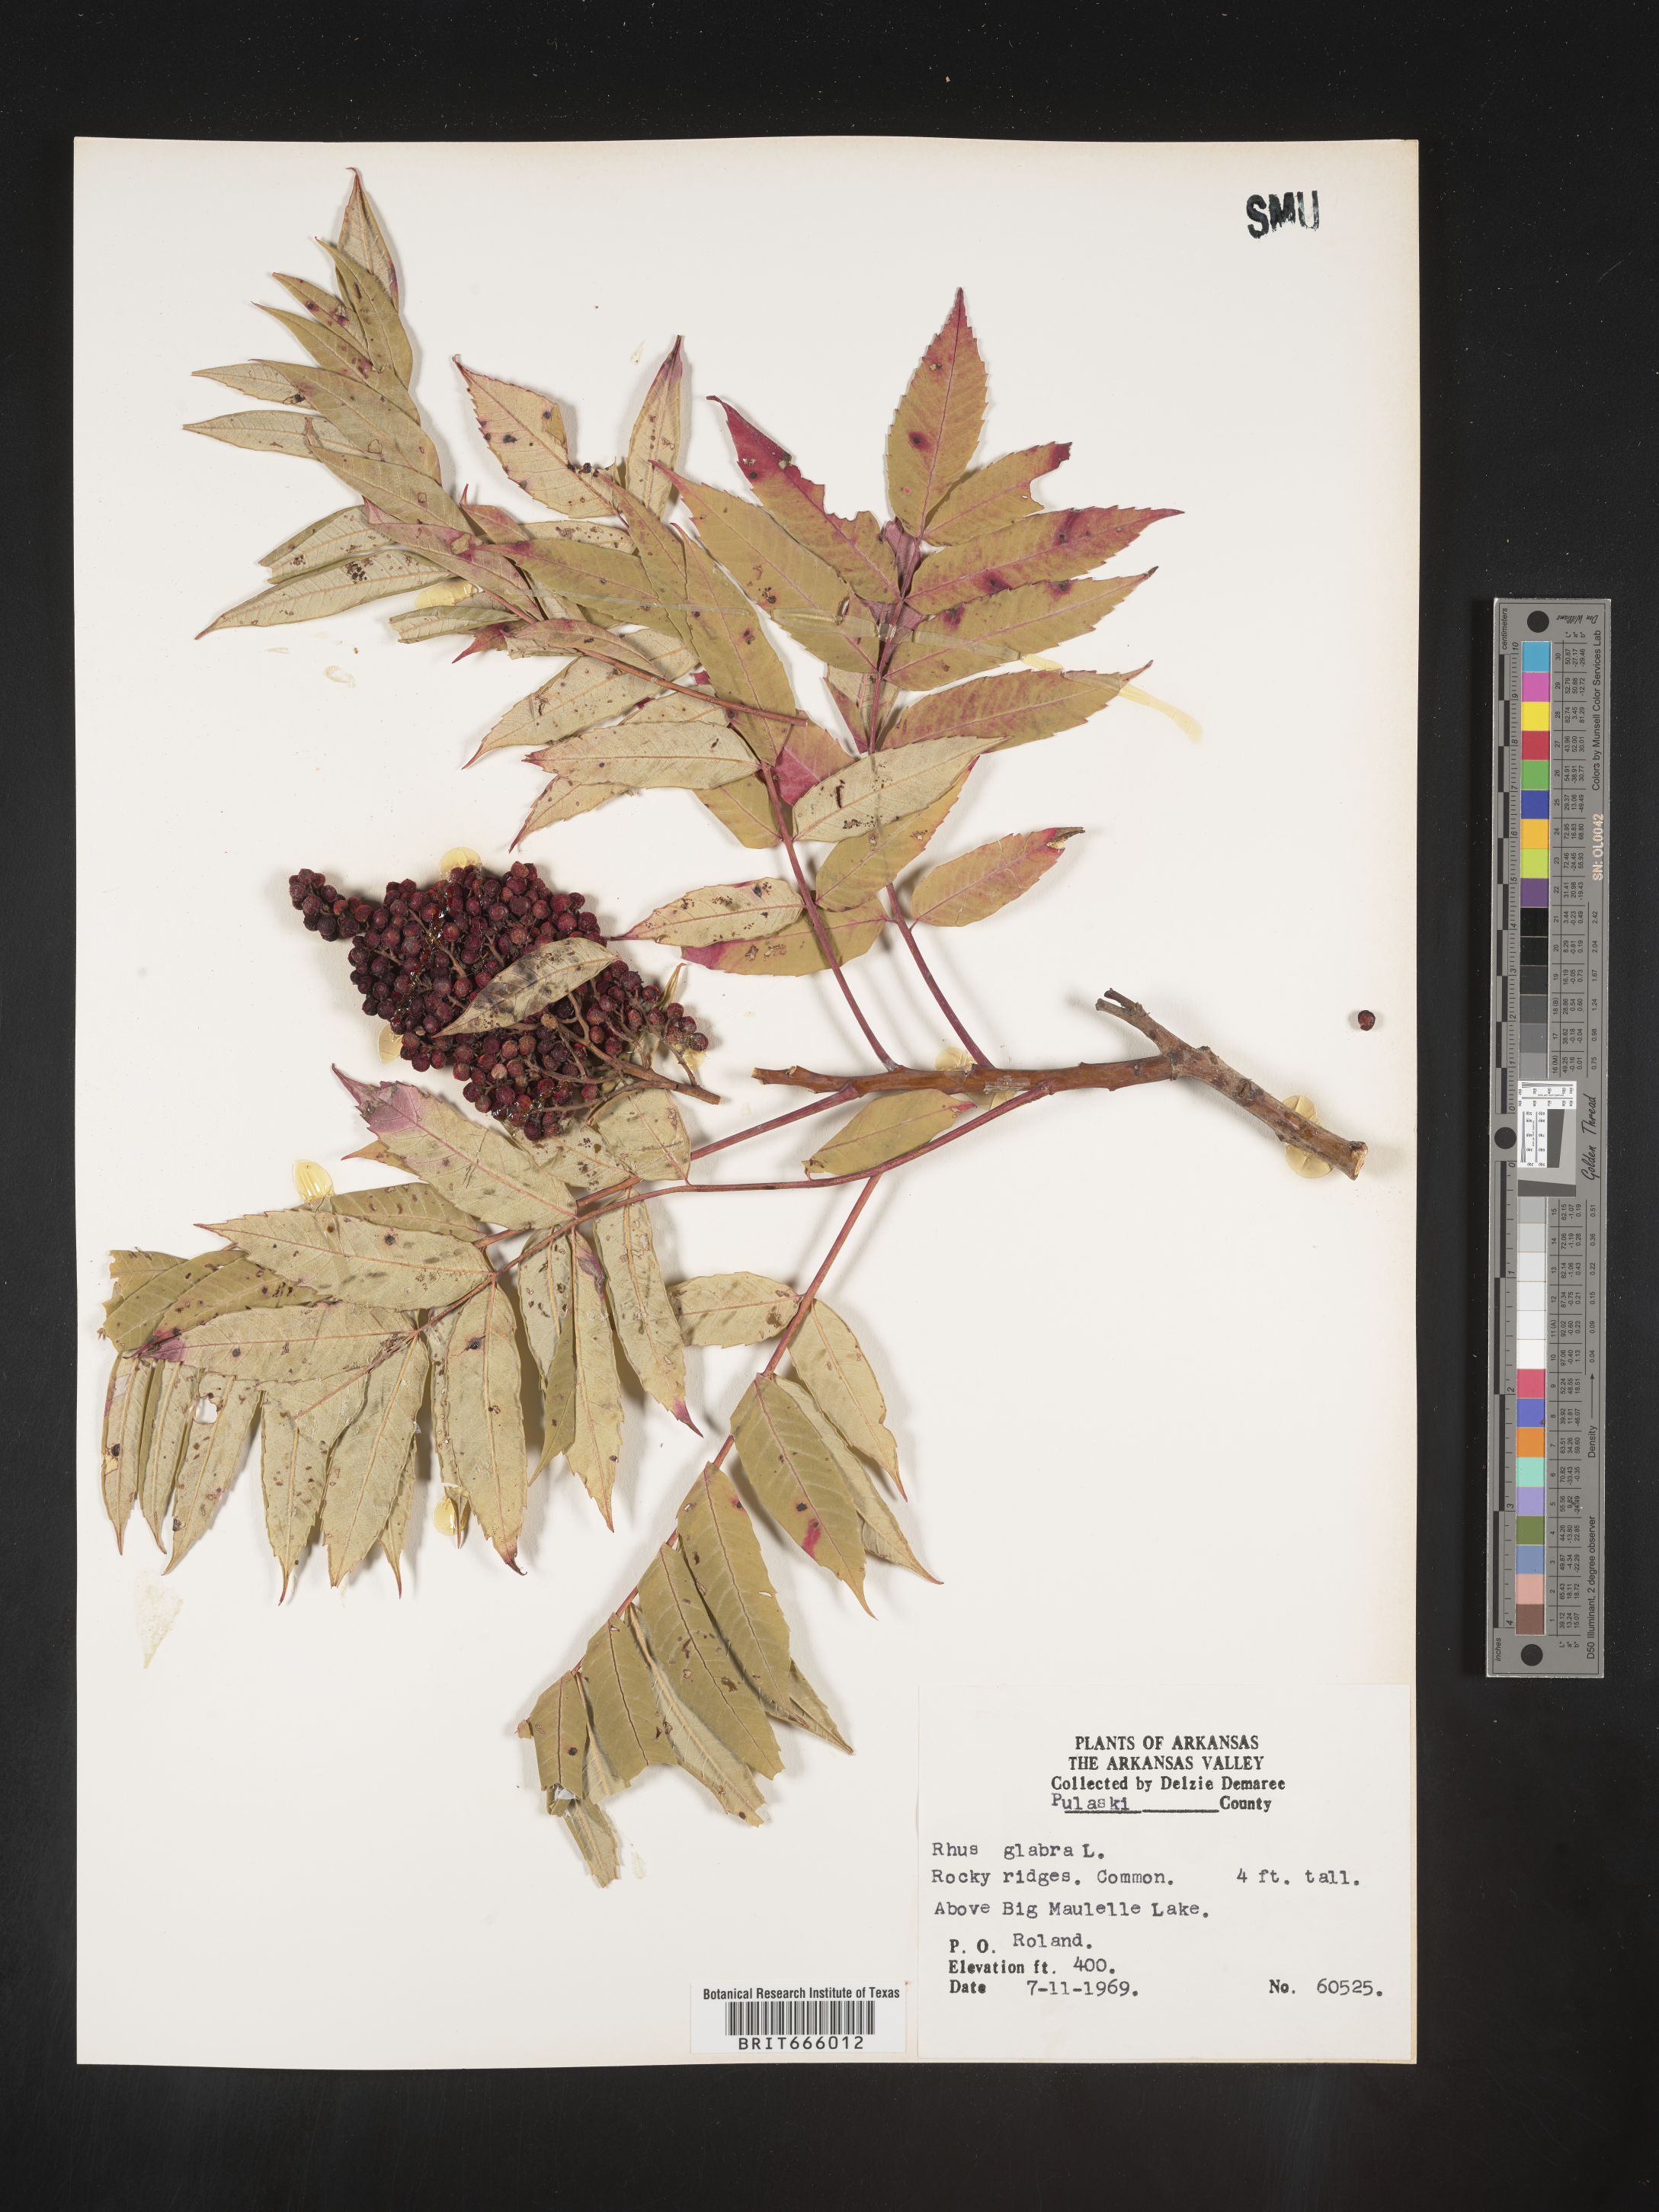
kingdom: Plantae
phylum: Tracheophyta
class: Magnoliopsida
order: Sapindales
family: Anacardiaceae
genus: Rhus
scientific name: Rhus glabra
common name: Scarlet sumac
